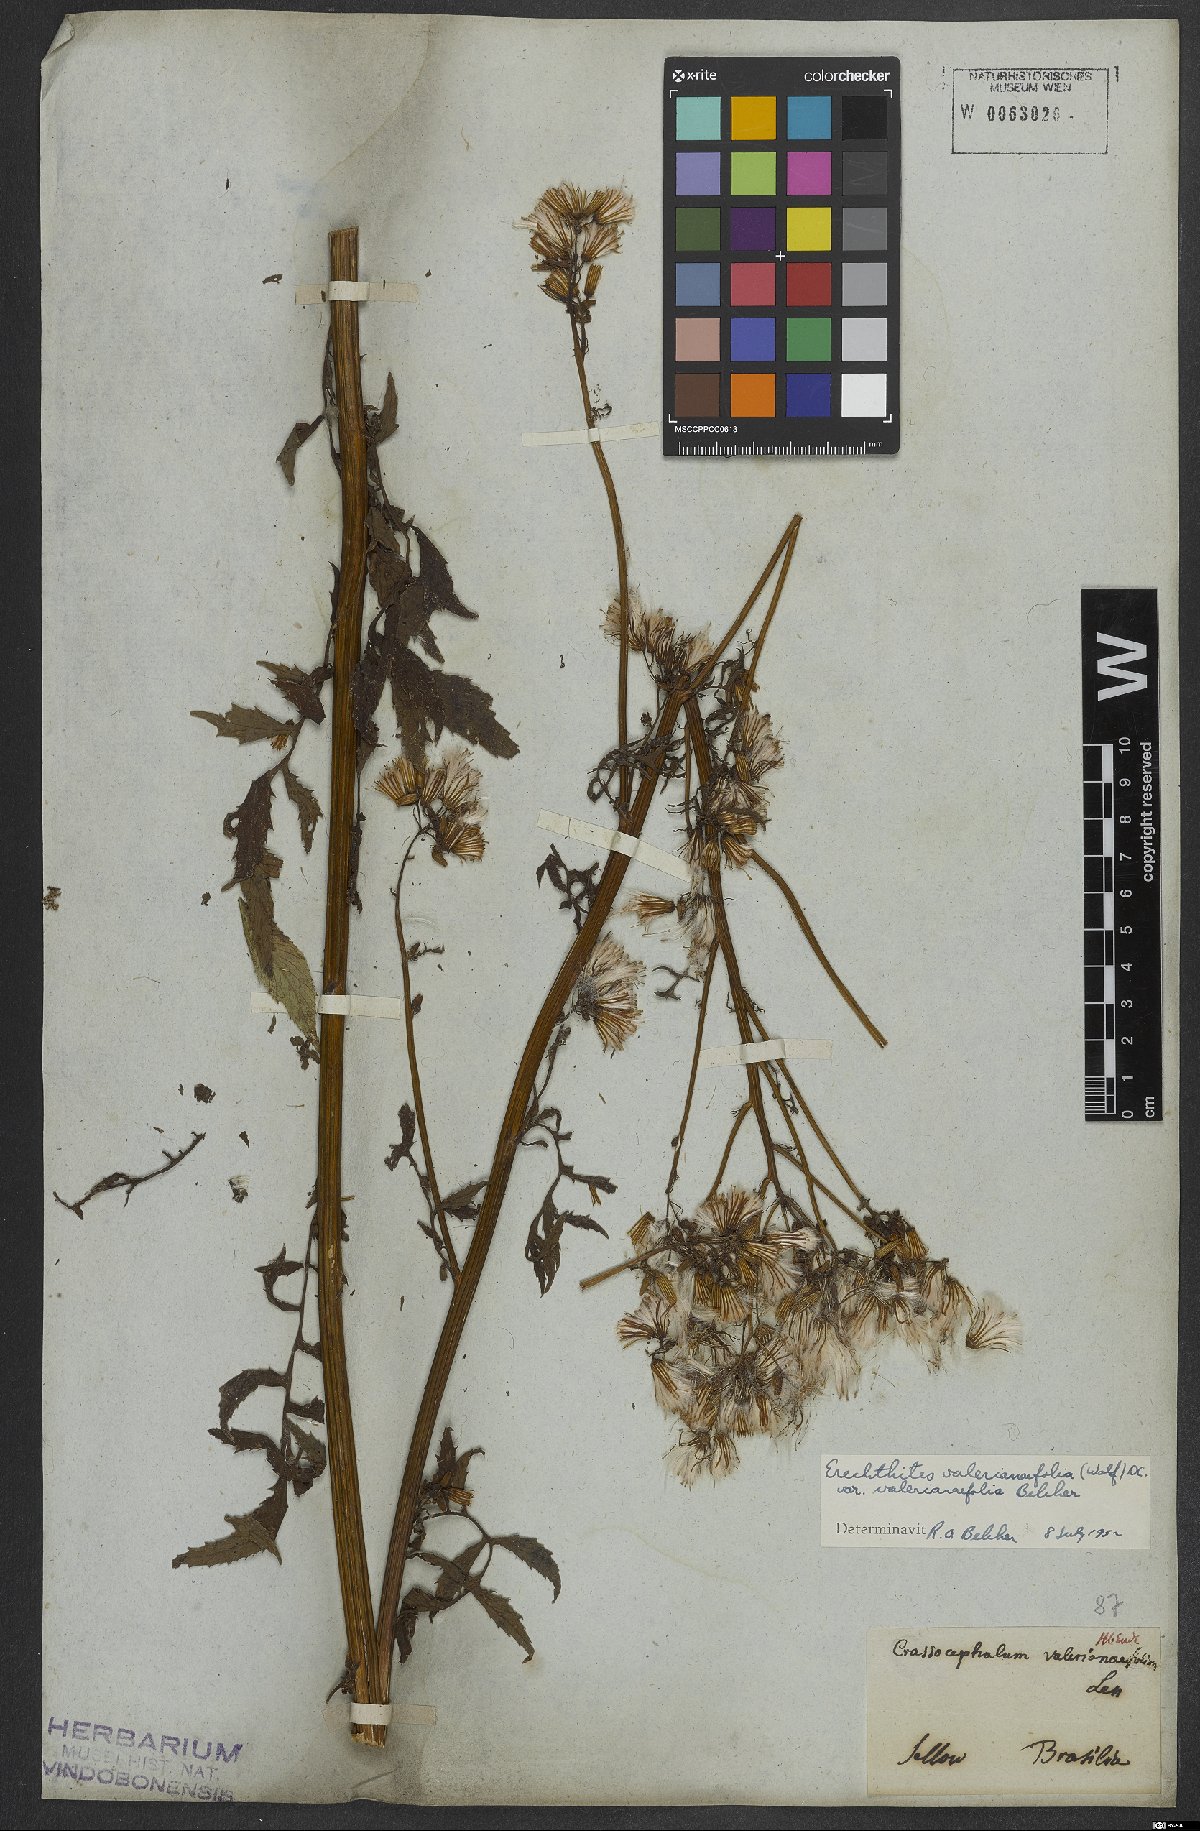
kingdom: Plantae
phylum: Tracheophyta
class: Magnoliopsida
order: Asterales
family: Asteraceae
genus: Erechtites
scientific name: Erechtites valerianifolius
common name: Tropical burnweed
